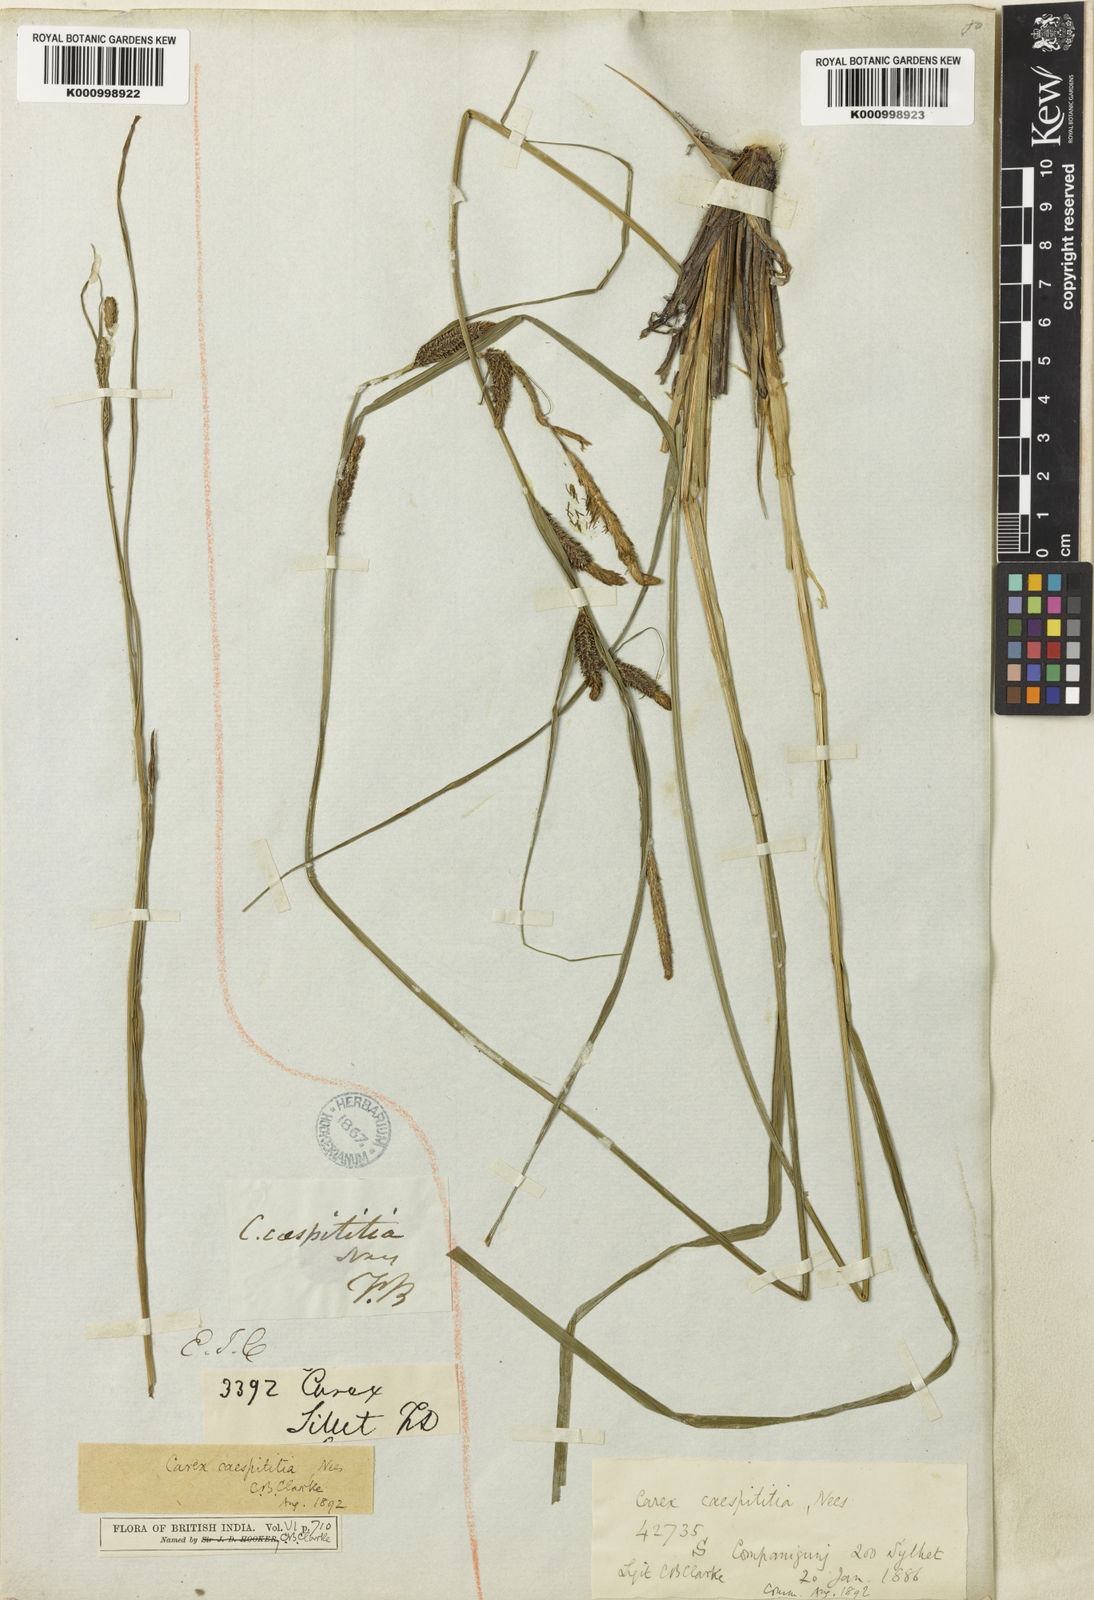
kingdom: Plantae
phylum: Tracheophyta
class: Liliopsida
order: Poales
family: Cyperaceae
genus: Carex
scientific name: Carex caespititia
